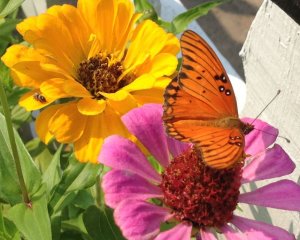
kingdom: Animalia
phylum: Arthropoda
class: Insecta
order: Lepidoptera
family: Nymphalidae
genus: Dione
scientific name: Dione vanillae
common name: Gulf Fritillary
